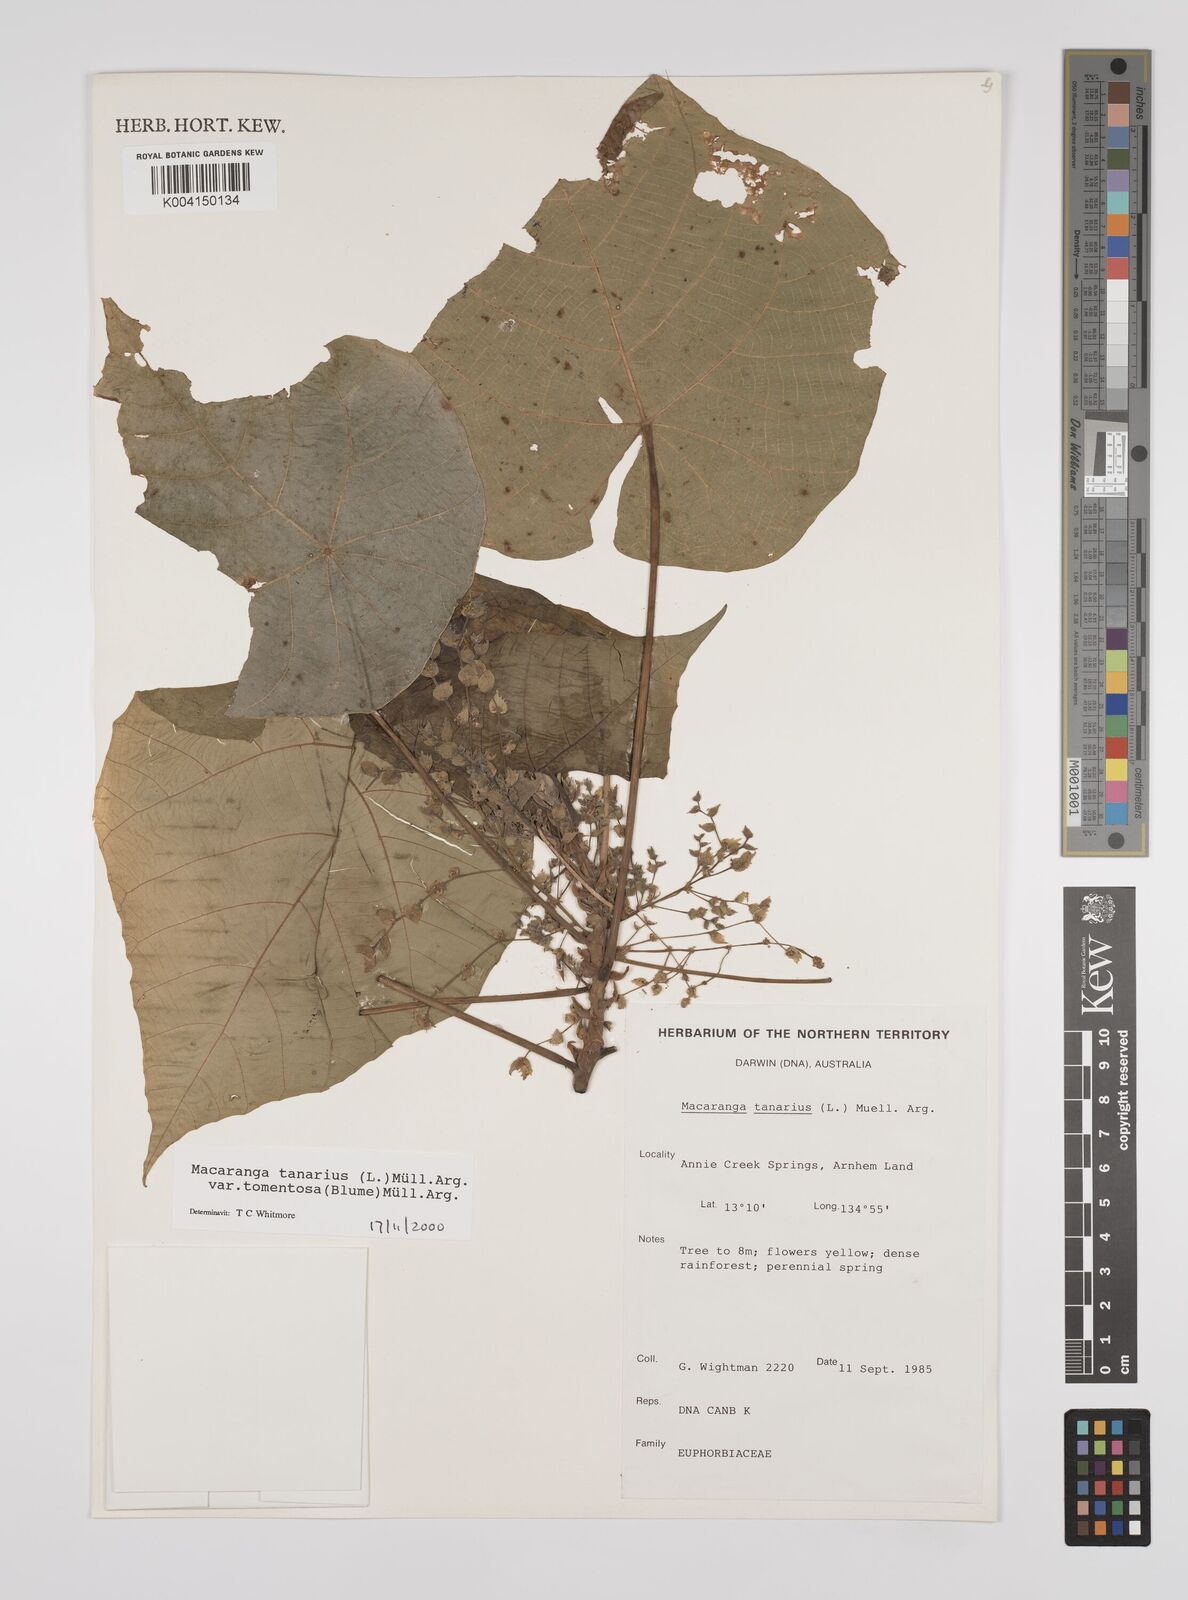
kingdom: Plantae
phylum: Tracheophyta
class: Magnoliopsida
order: Malpighiales
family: Euphorbiaceae
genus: Macaranga
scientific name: Macaranga tanarius
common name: Parasol leaf tree
